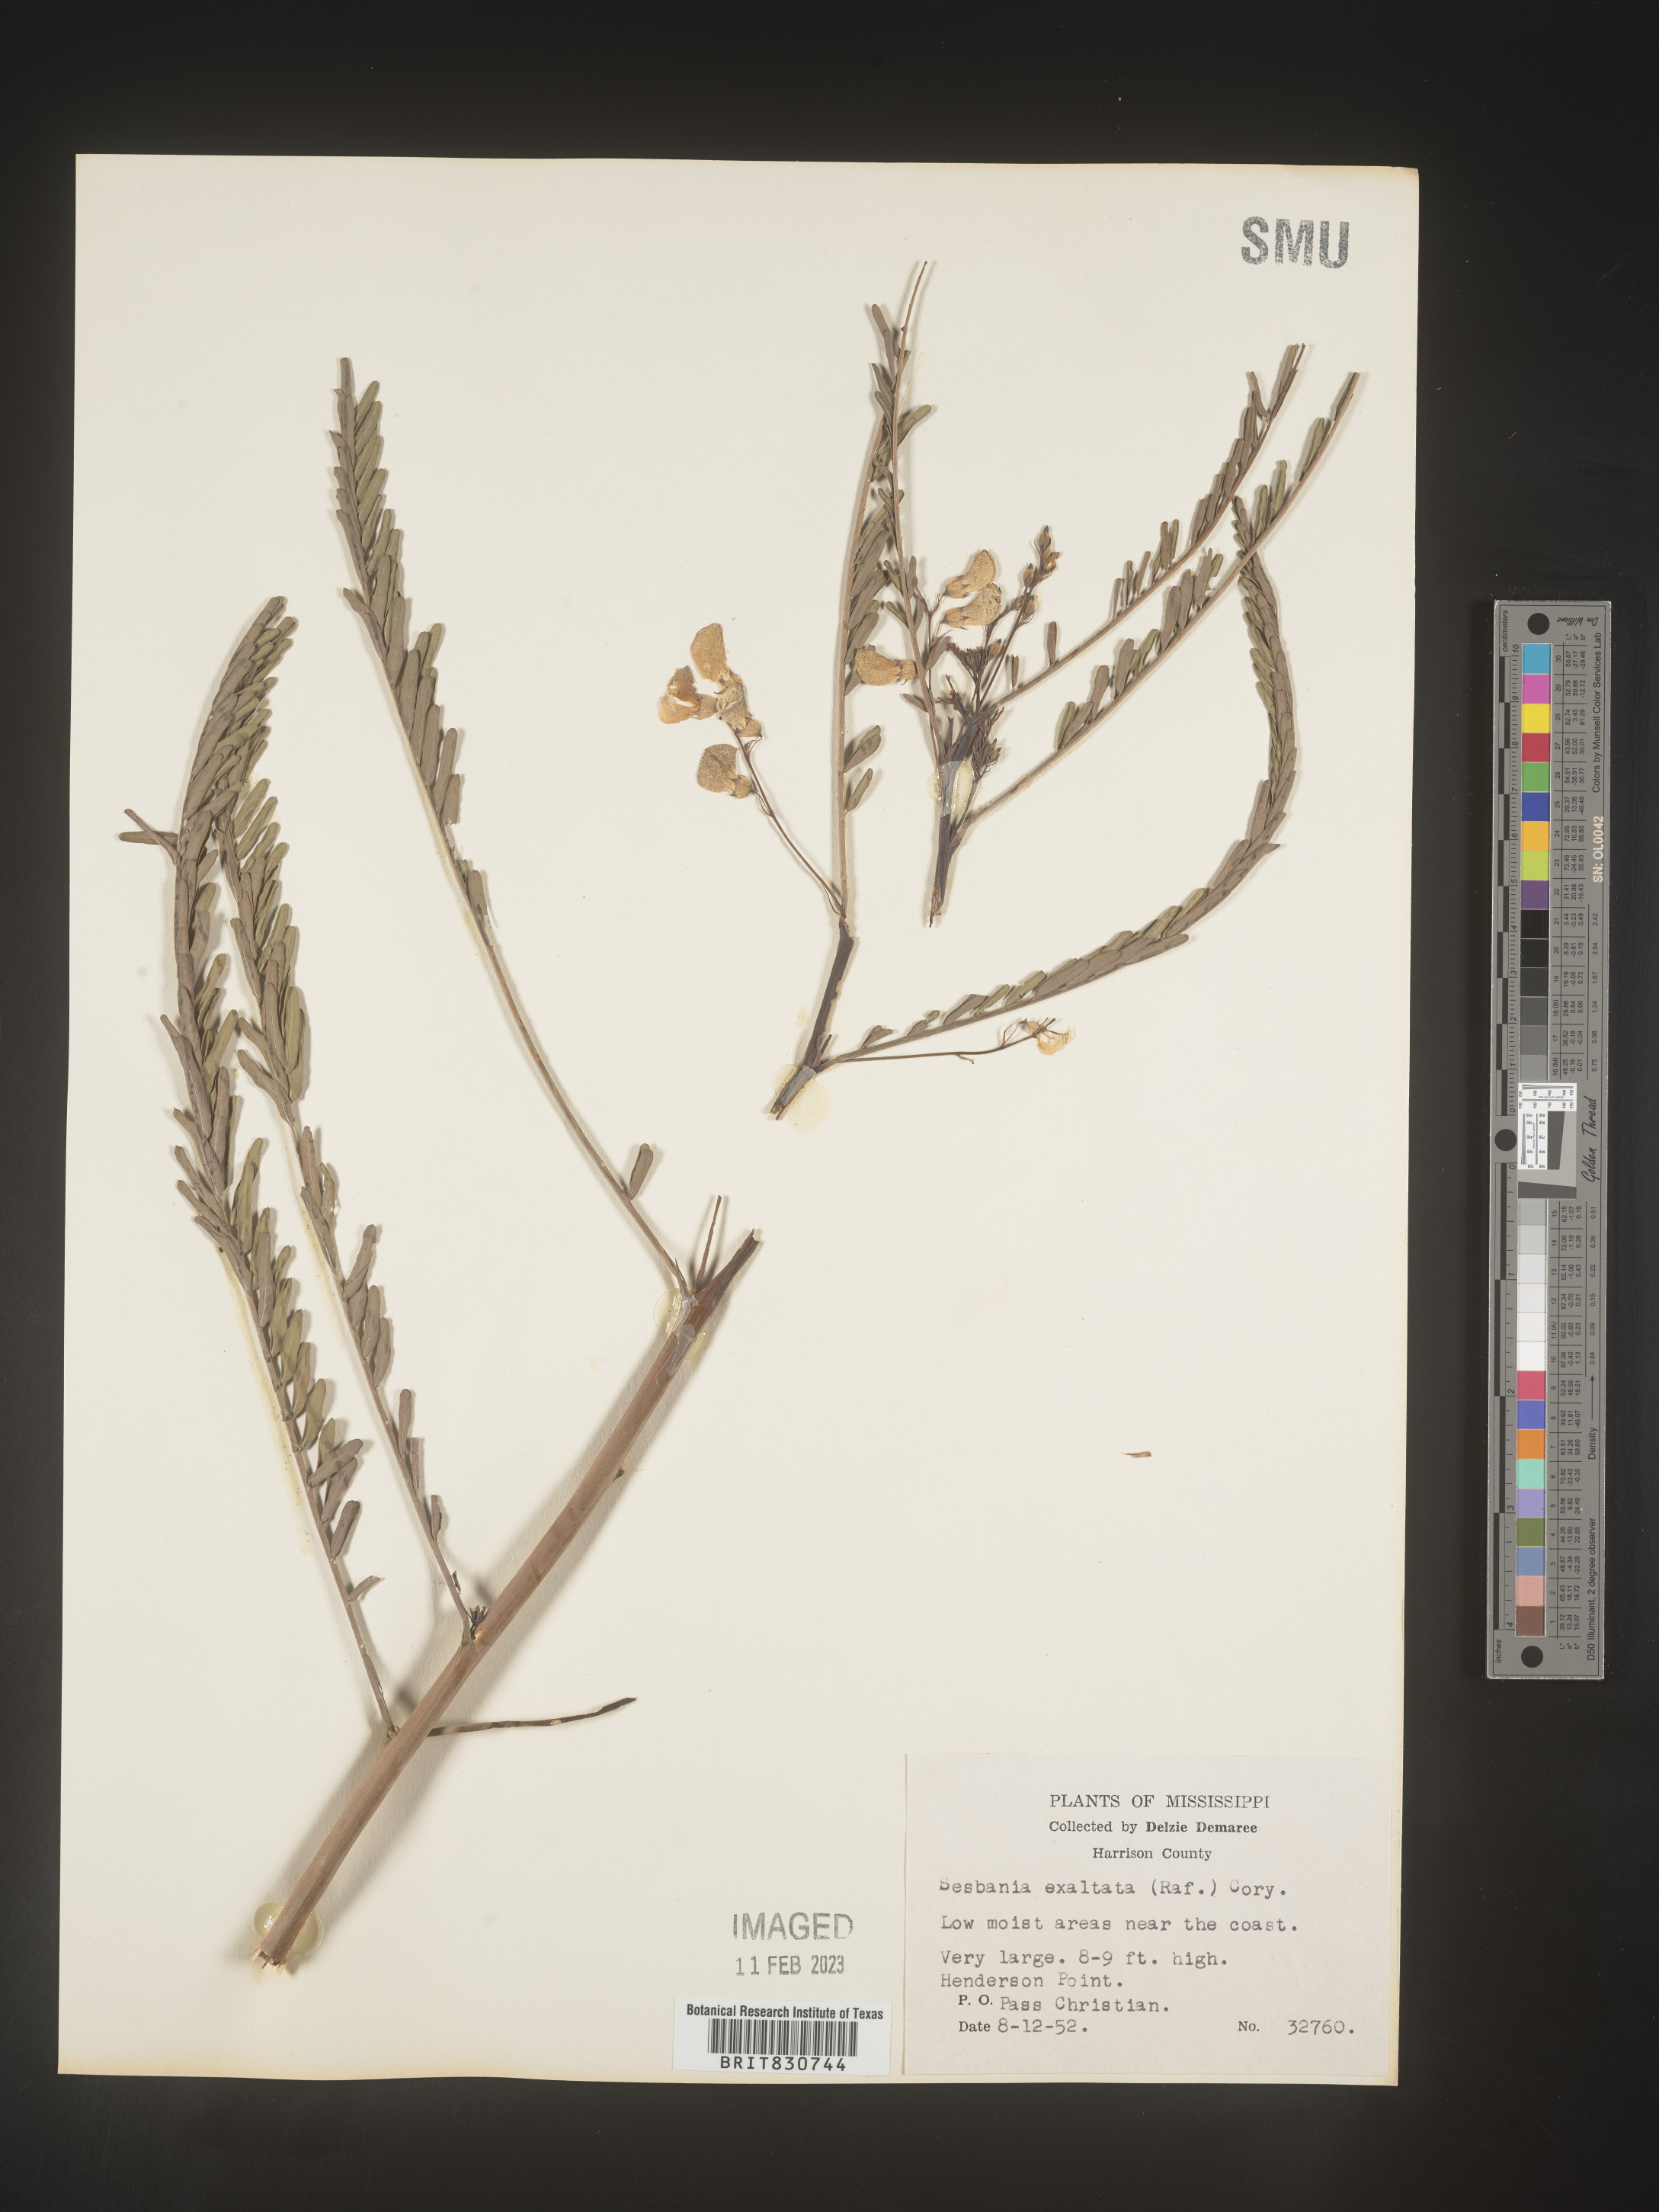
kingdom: Plantae
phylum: Tracheophyta
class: Magnoliopsida
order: Fabales
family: Fabaceae
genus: Sesbania
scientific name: Sesbania vesicaria
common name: Bagpod
